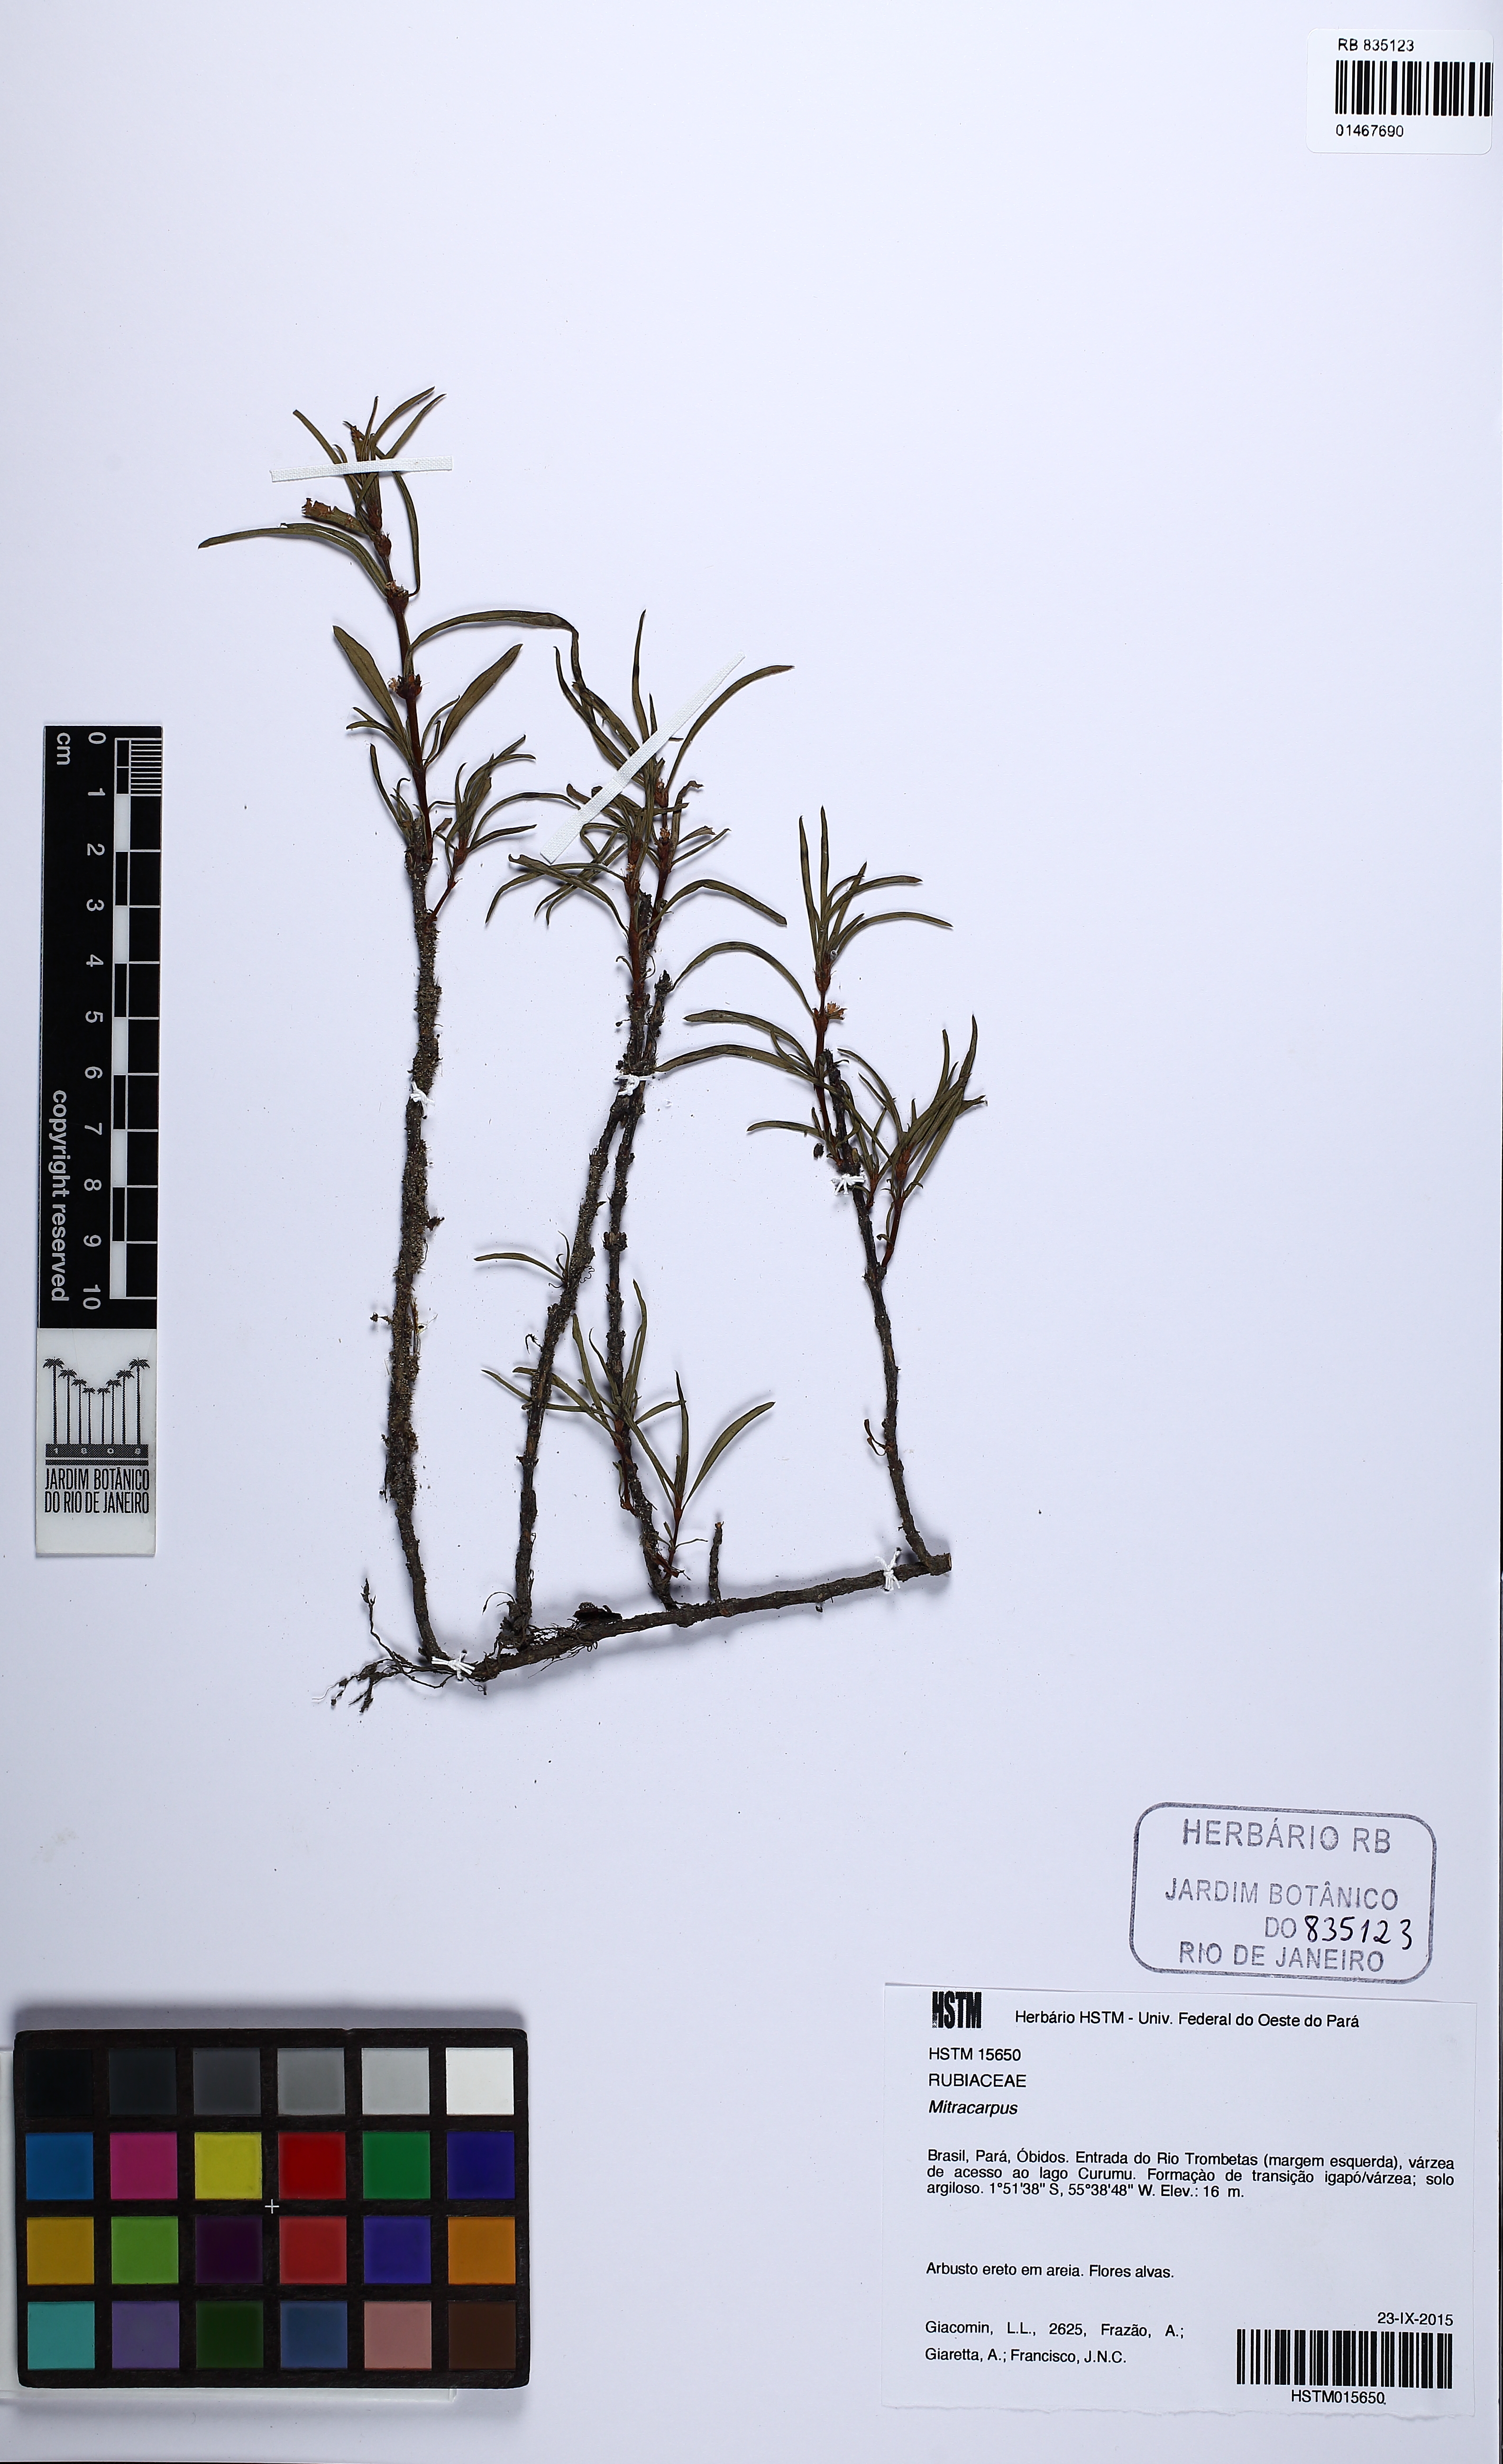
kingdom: Plantae
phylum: Tracheophyta
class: Magnoliopsida
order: Gentianales
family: Rubiaceae
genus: Mitracarpus
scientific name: Mitracarpus
